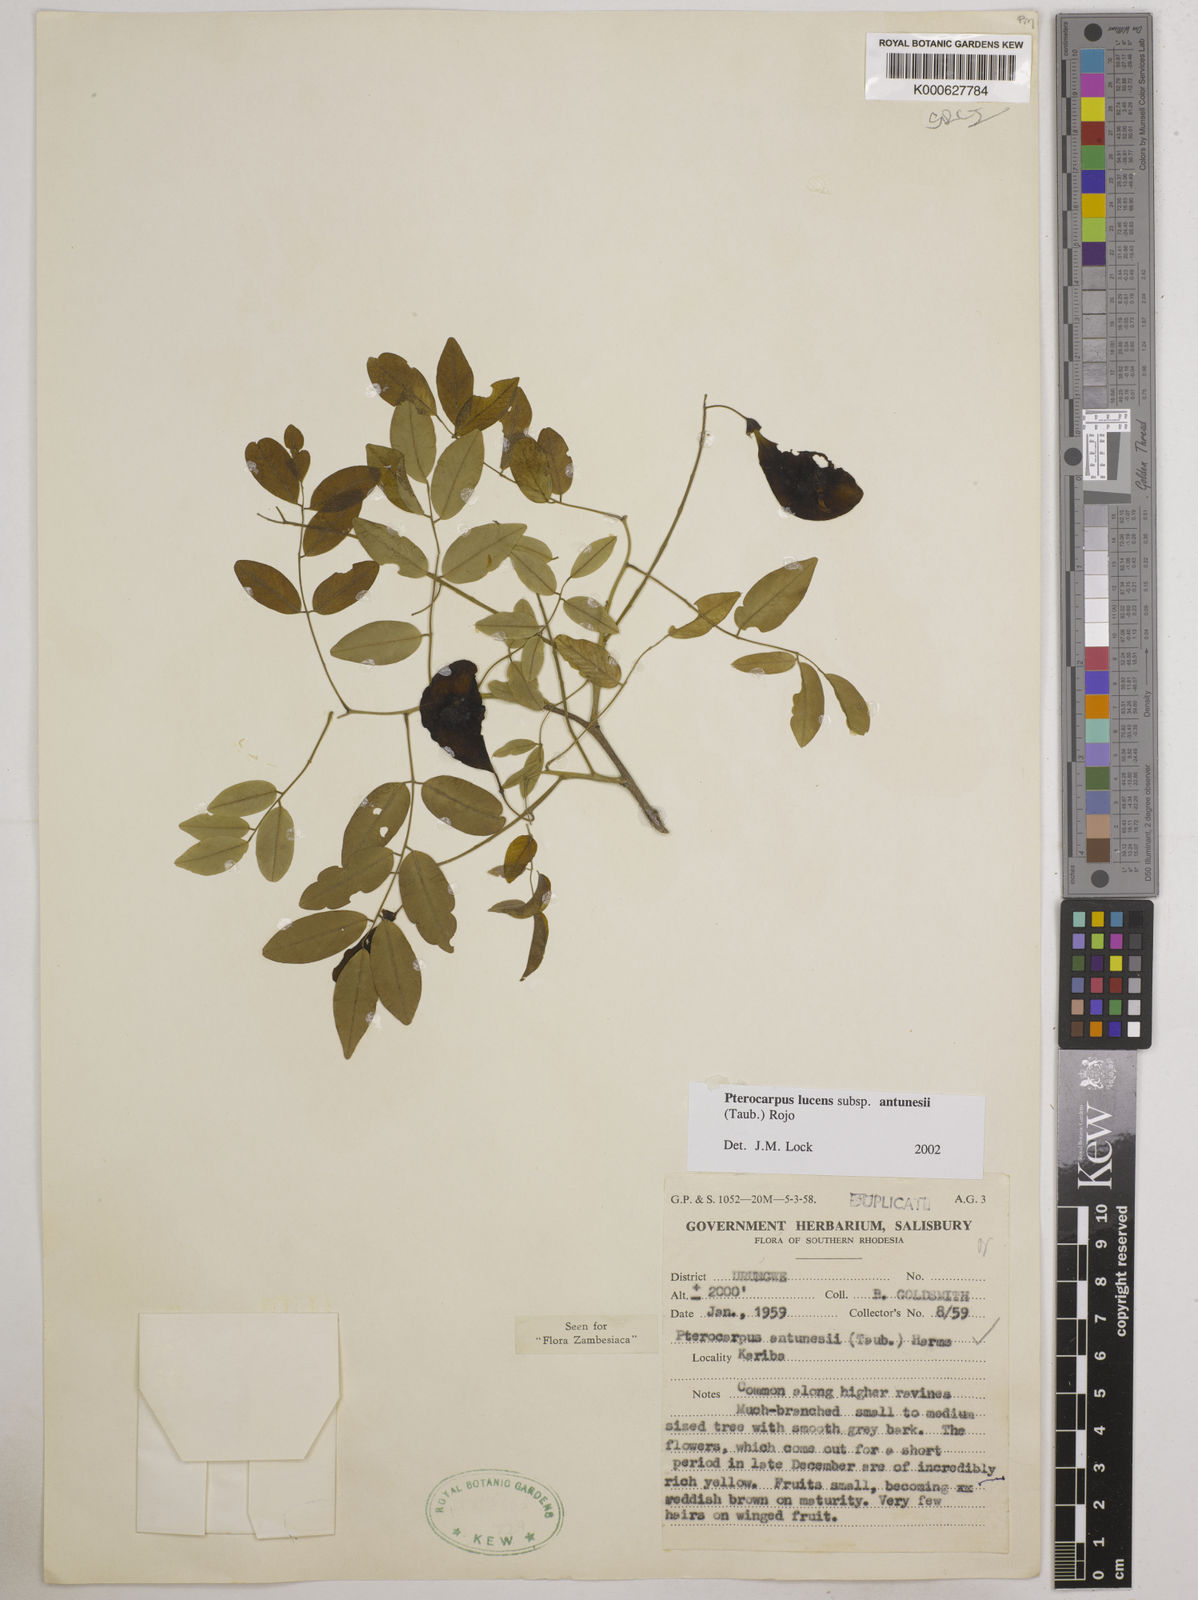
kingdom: Plantae
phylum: Tracheophyta
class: Magnoliopsida
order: Fabales
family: Fabaceae
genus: Pterocarpus
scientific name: Pterocarpus lucens
